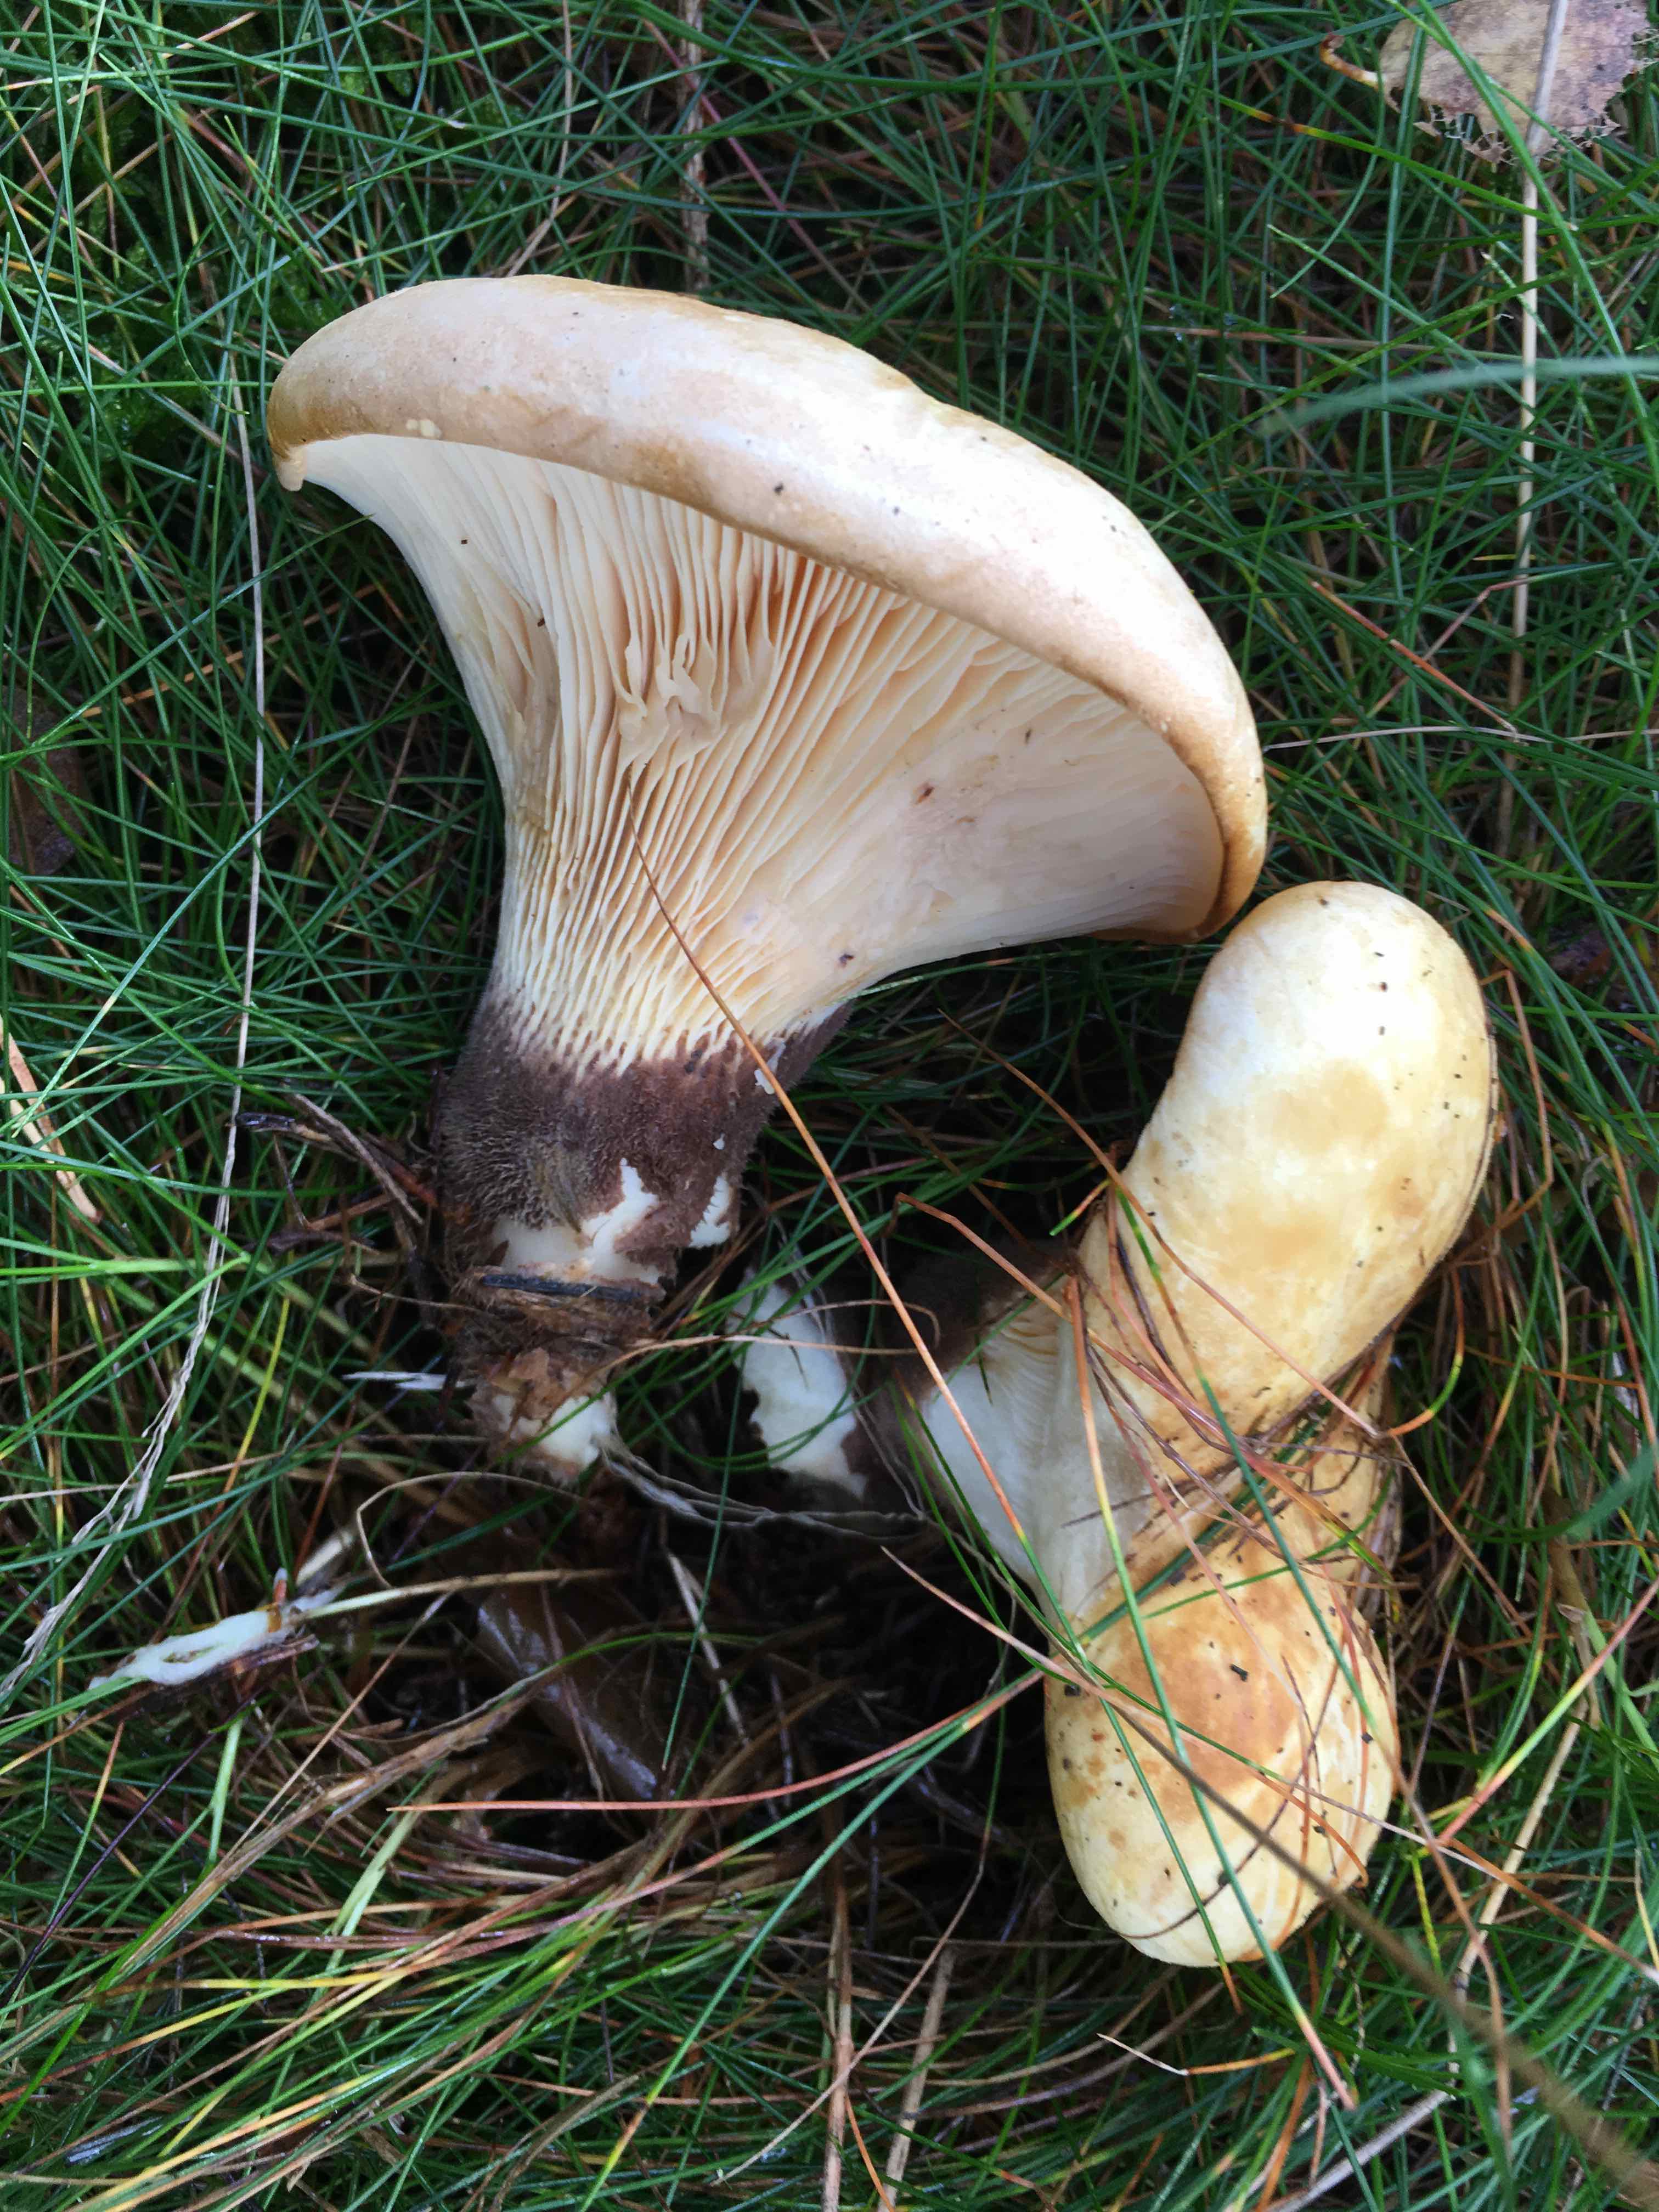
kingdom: Fungi
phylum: Basidiomycota
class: Agaricomycetes
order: Boletales
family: Tapinellaceae
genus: Tapinella
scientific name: Tapinella atrotomentosa
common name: sortfiltet viftesvamp
